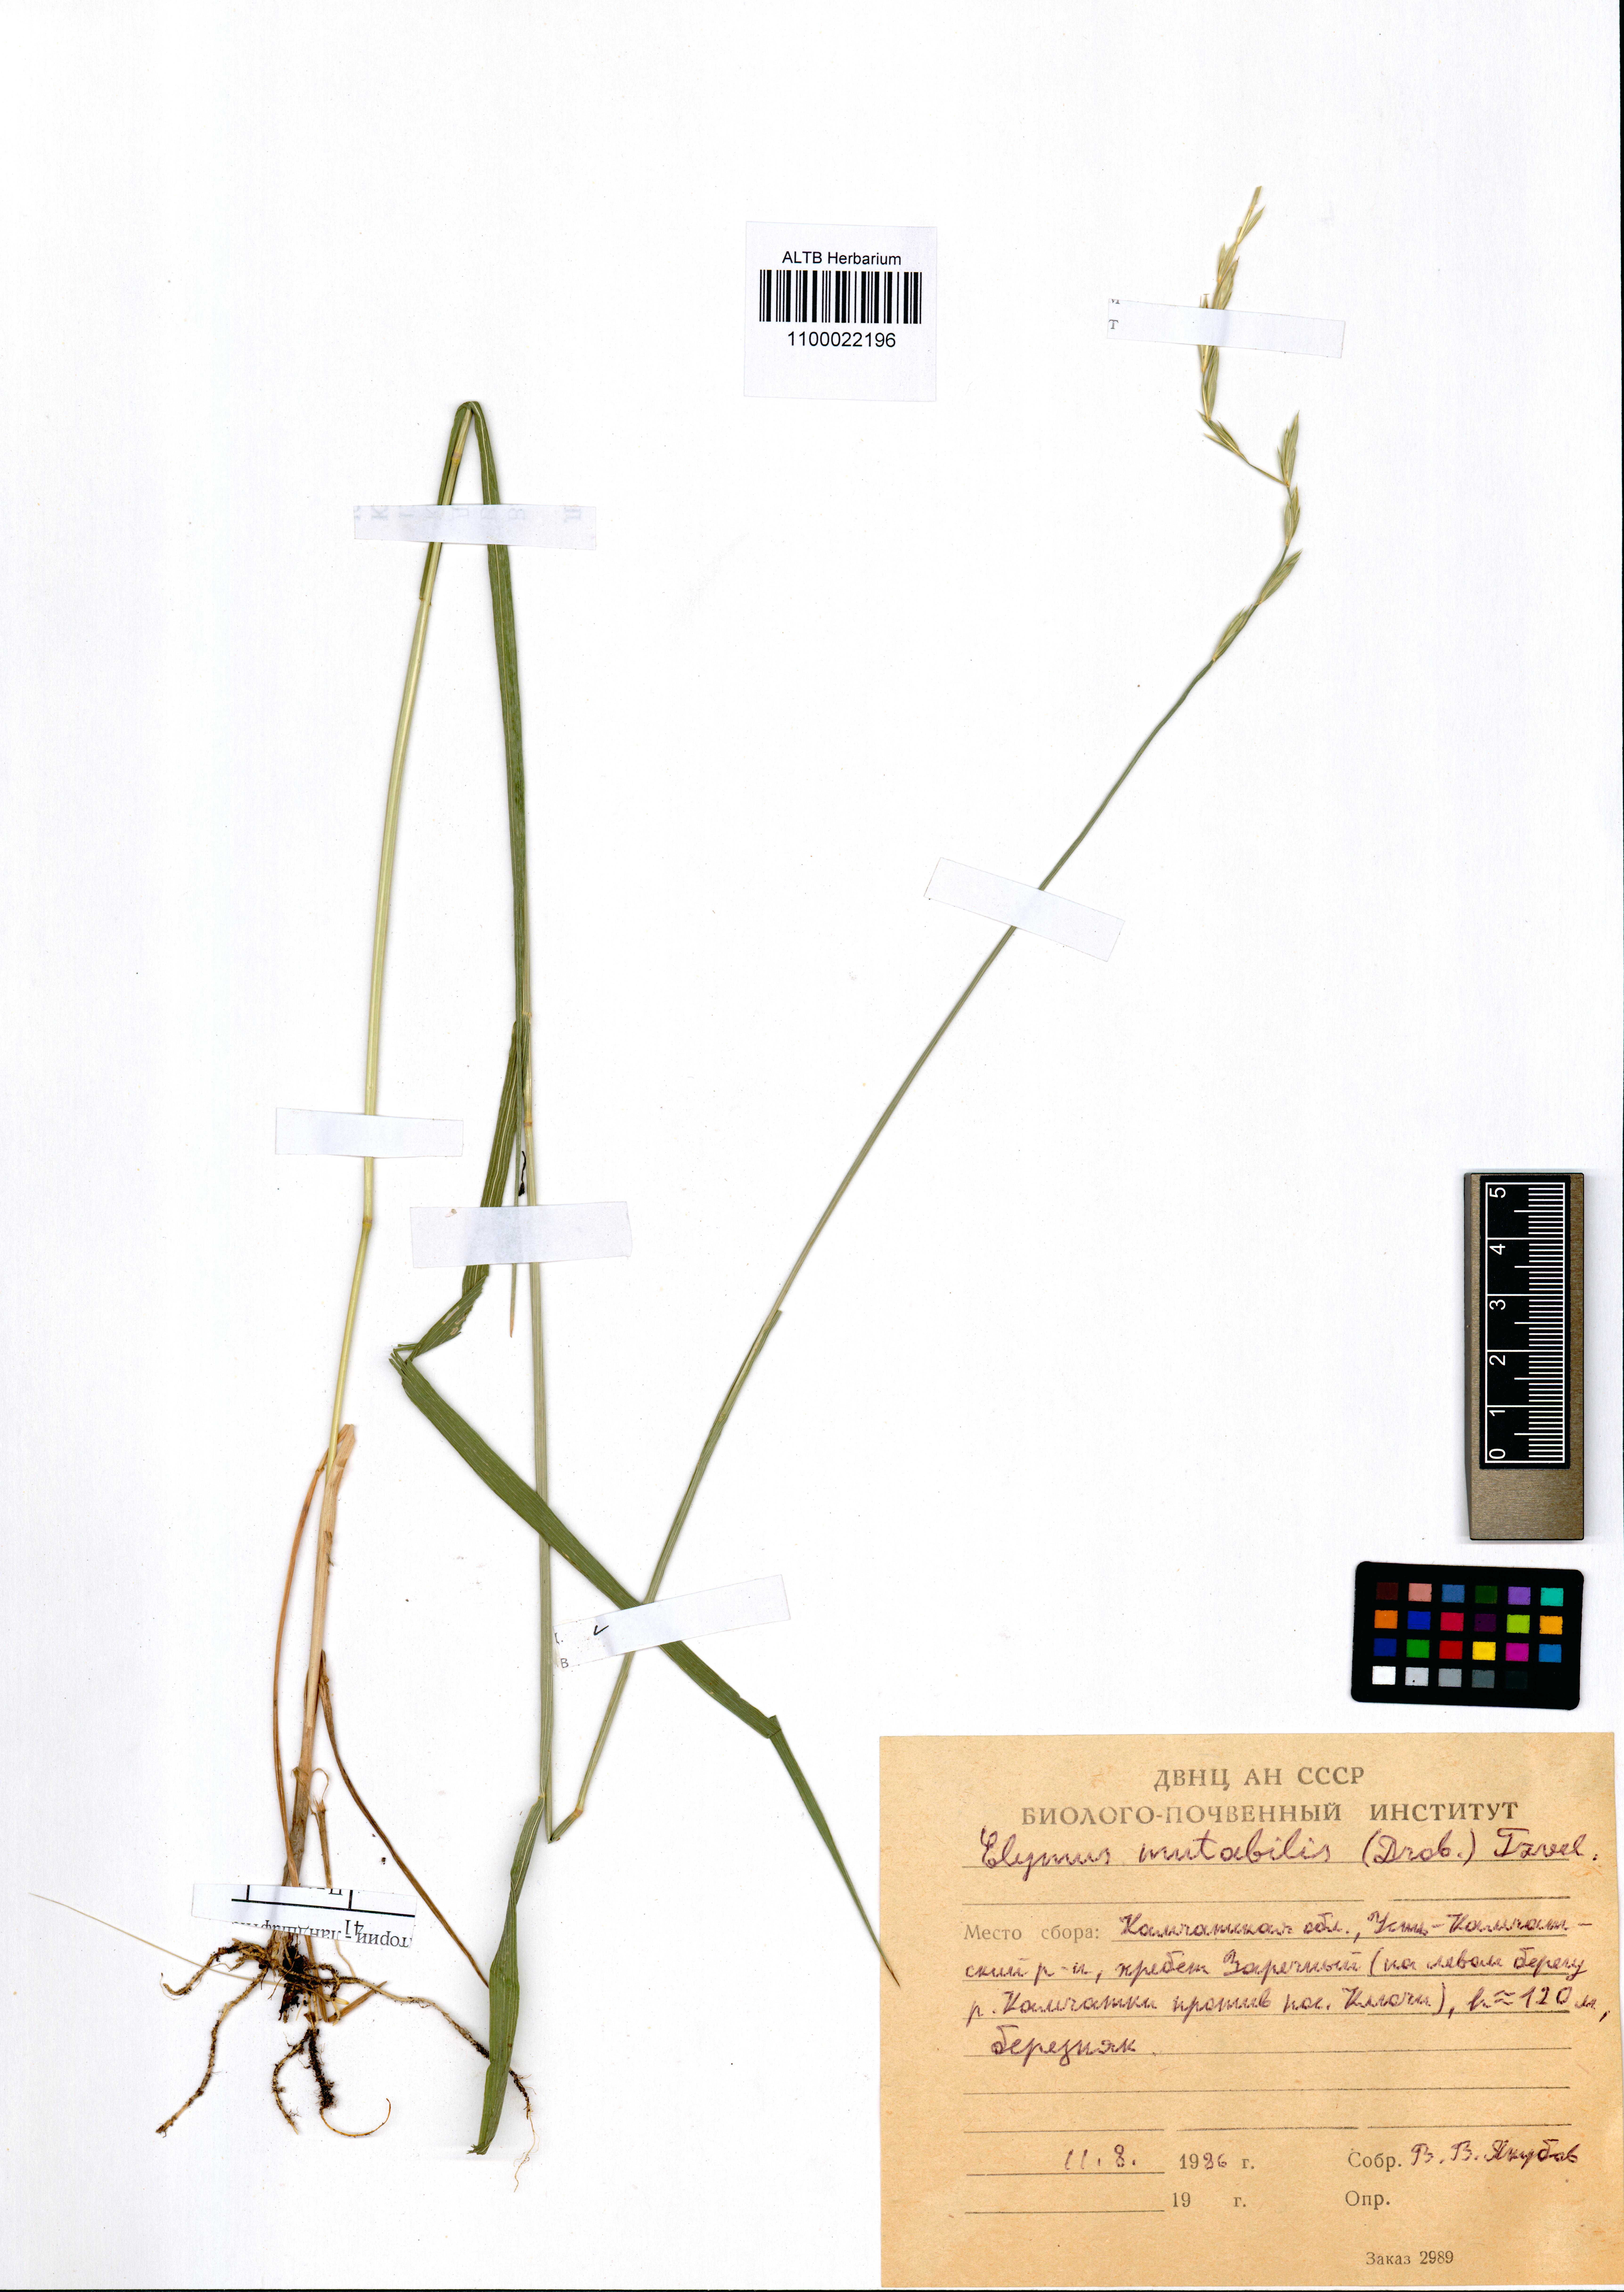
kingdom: Plantae
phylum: Tracheophyta
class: Liliopsida
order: Poales
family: Poaceae
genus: Elymus
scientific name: Elymus mutabilis
